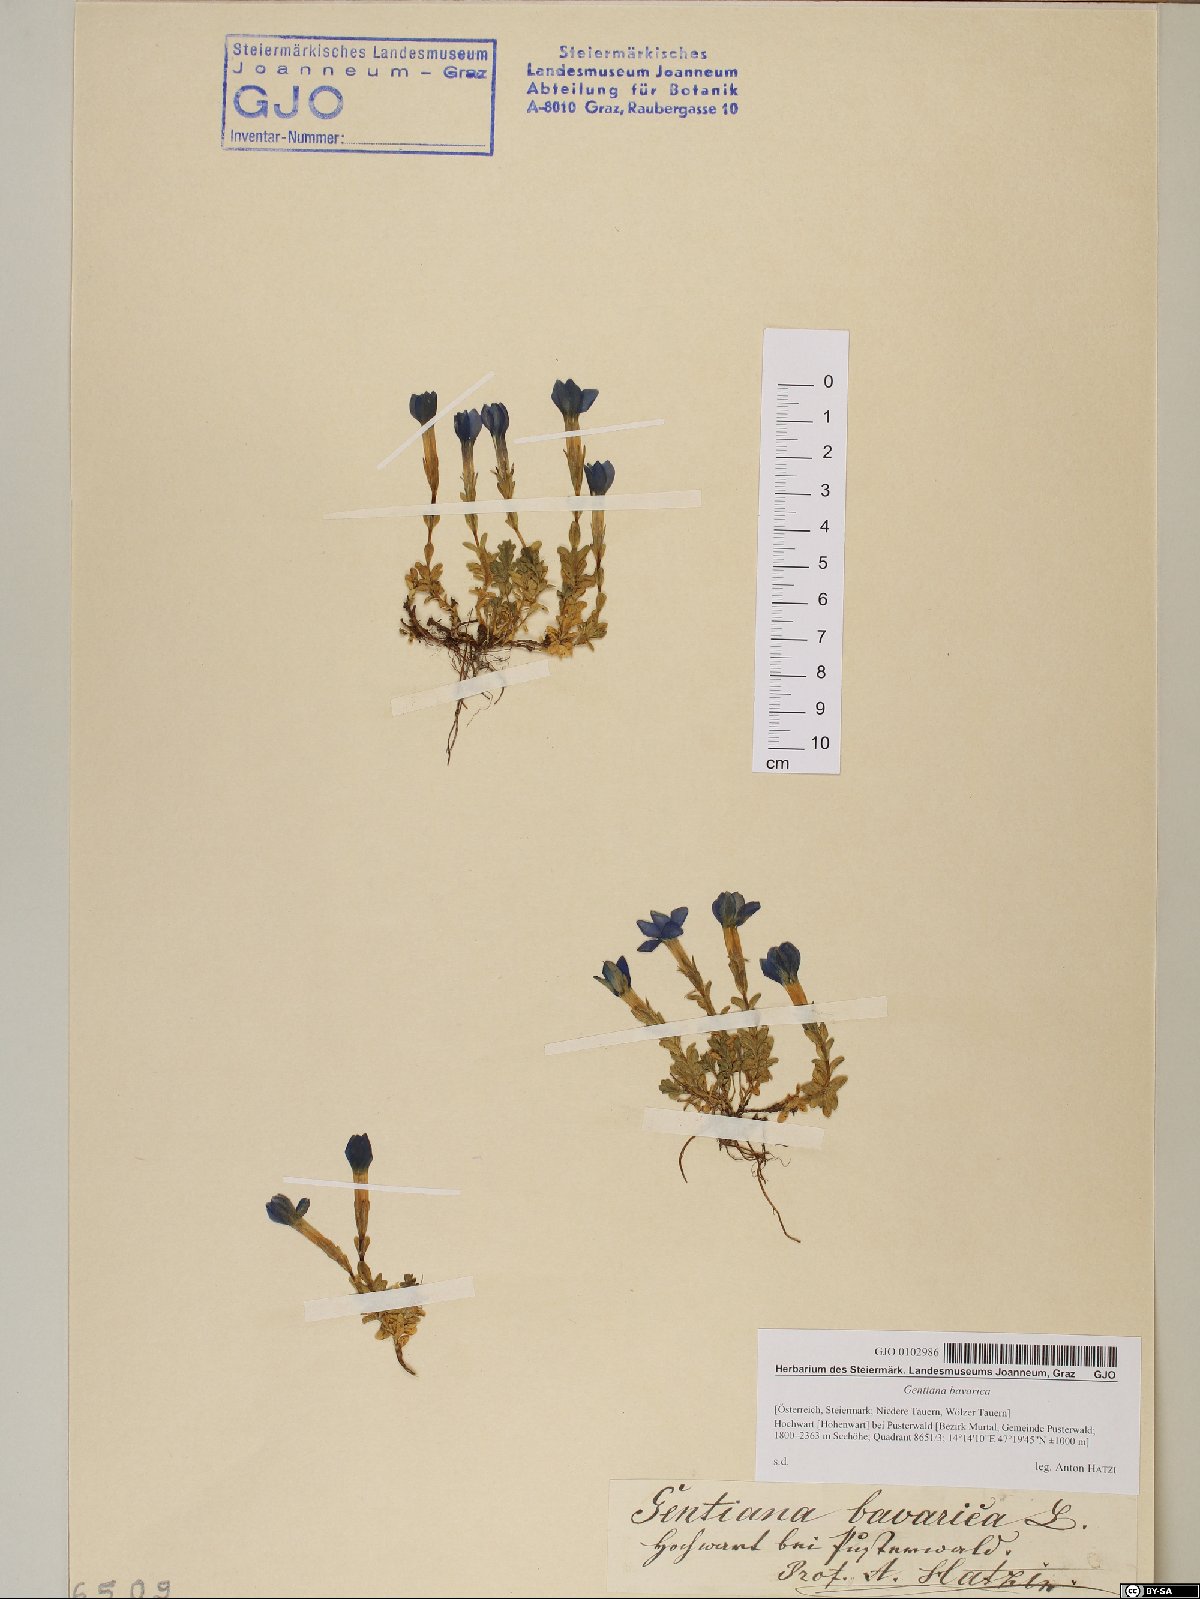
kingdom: Plantae
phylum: Tracheophyta
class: Magnoliopsida
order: Gentianales
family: Gentianaceae
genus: Gentiana
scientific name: Gentiana bavarica
